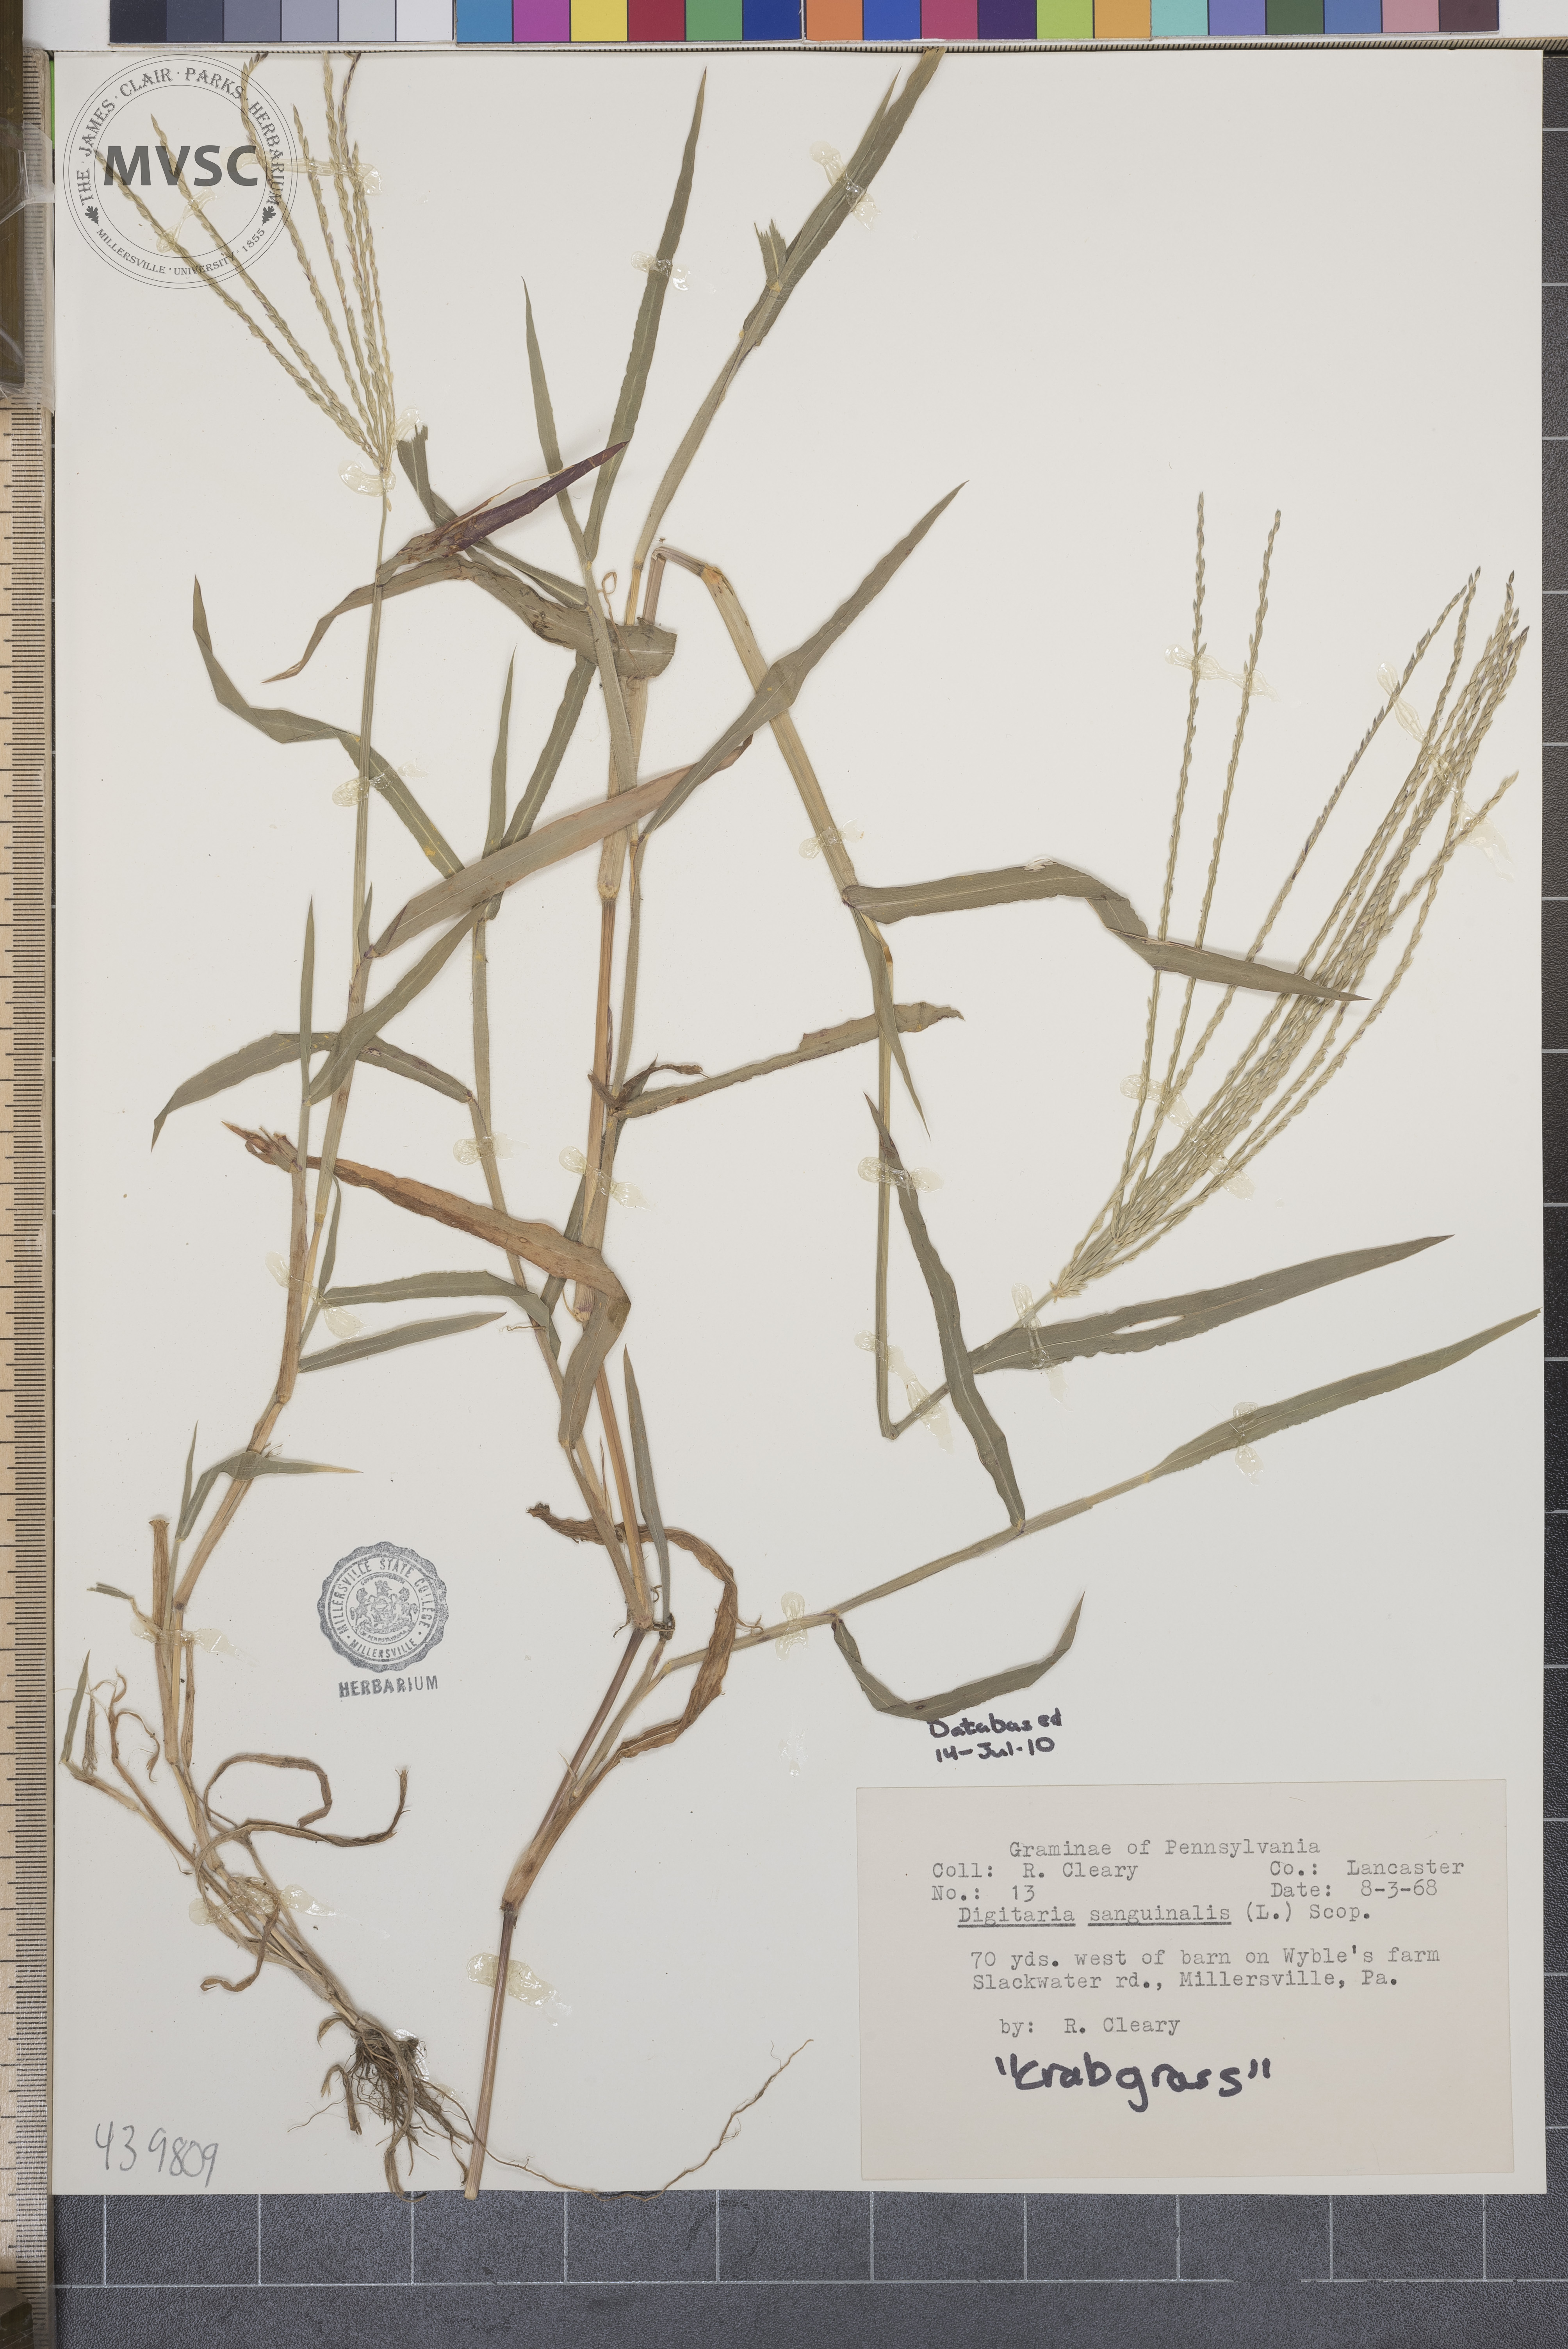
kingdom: Plantae
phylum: Tracheophyta
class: Liliopsida
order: Poales
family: Poaceae
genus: Digitaria
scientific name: Digitaria sanguinalis
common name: Hairy crabgrass
